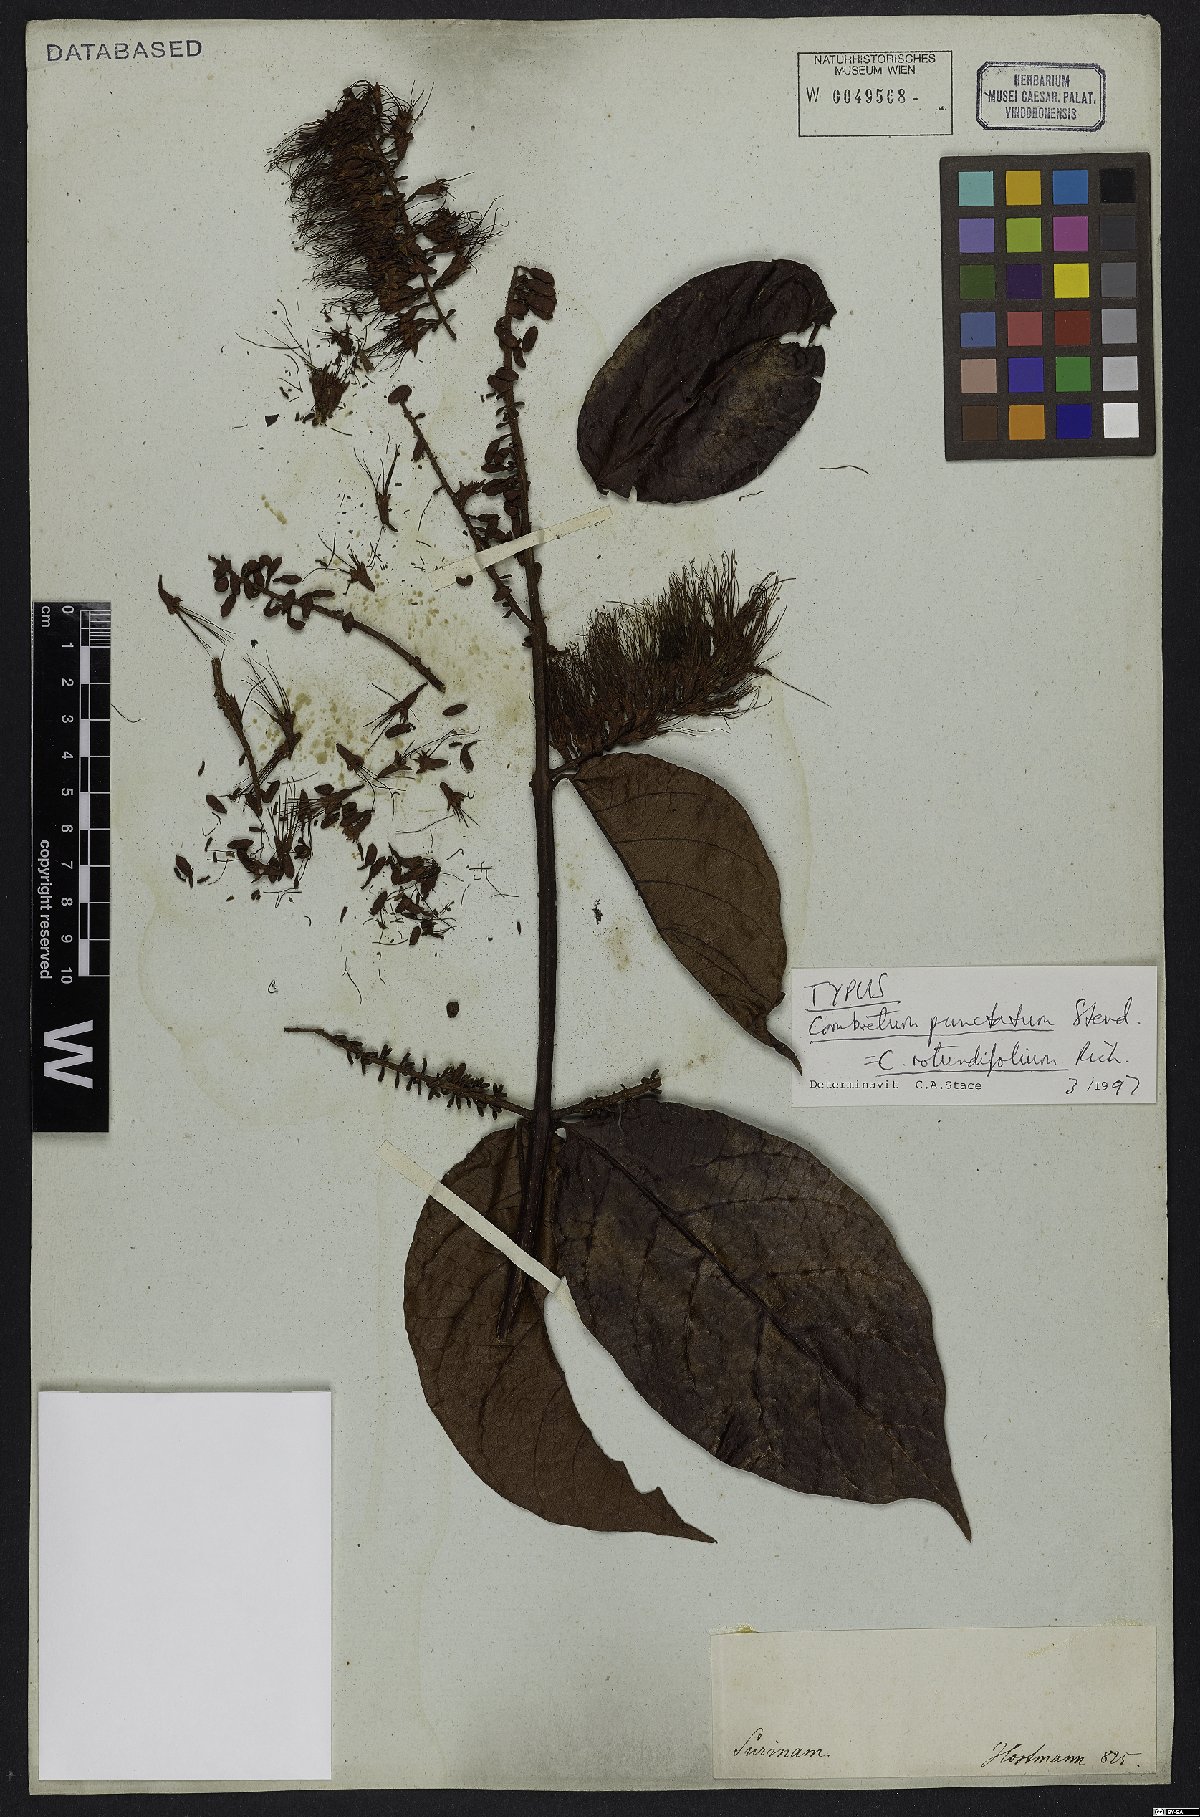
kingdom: Plantae
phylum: Tracheophyta
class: Magnoliopsida
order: Myrtales
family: Combretaceae
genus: Combretum
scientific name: Combretum rotundifolium
